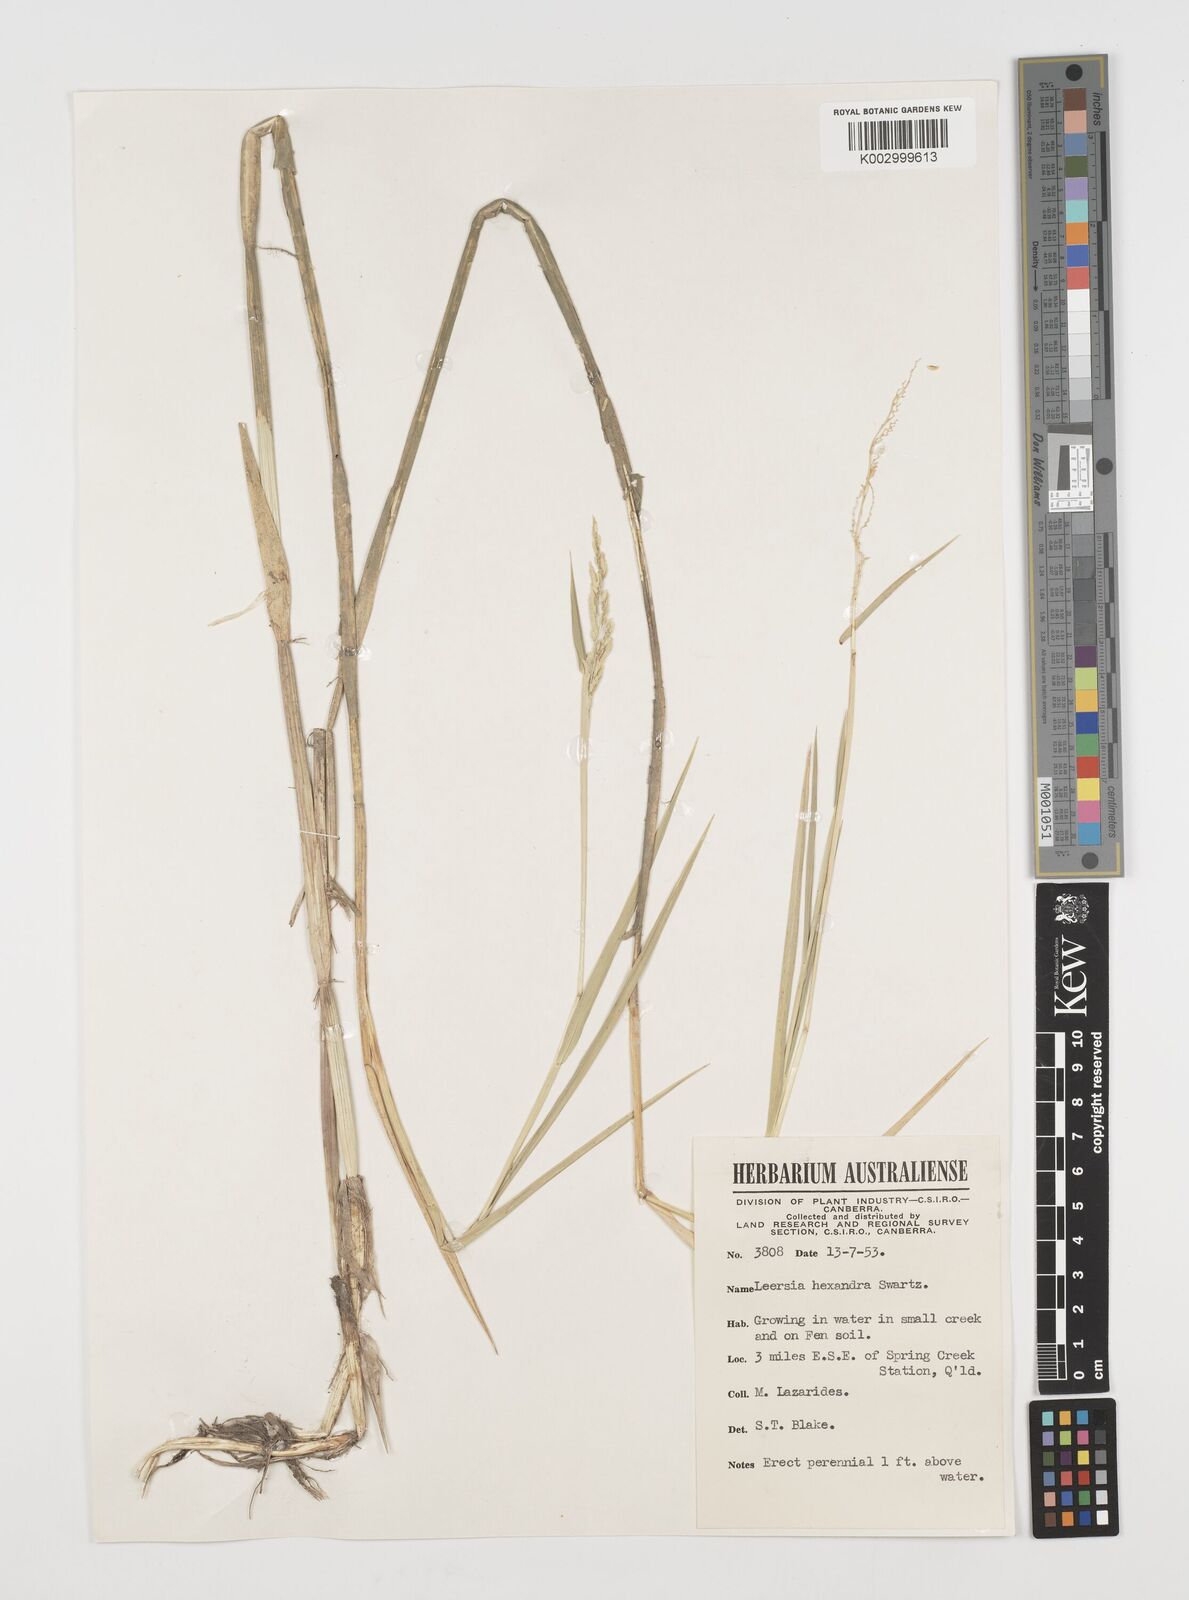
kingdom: Plantae
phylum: Tracheophyta
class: Liliopsida
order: Poales
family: Poaceae
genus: Leersia
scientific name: Leersia hexandra
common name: Southern cut grass
